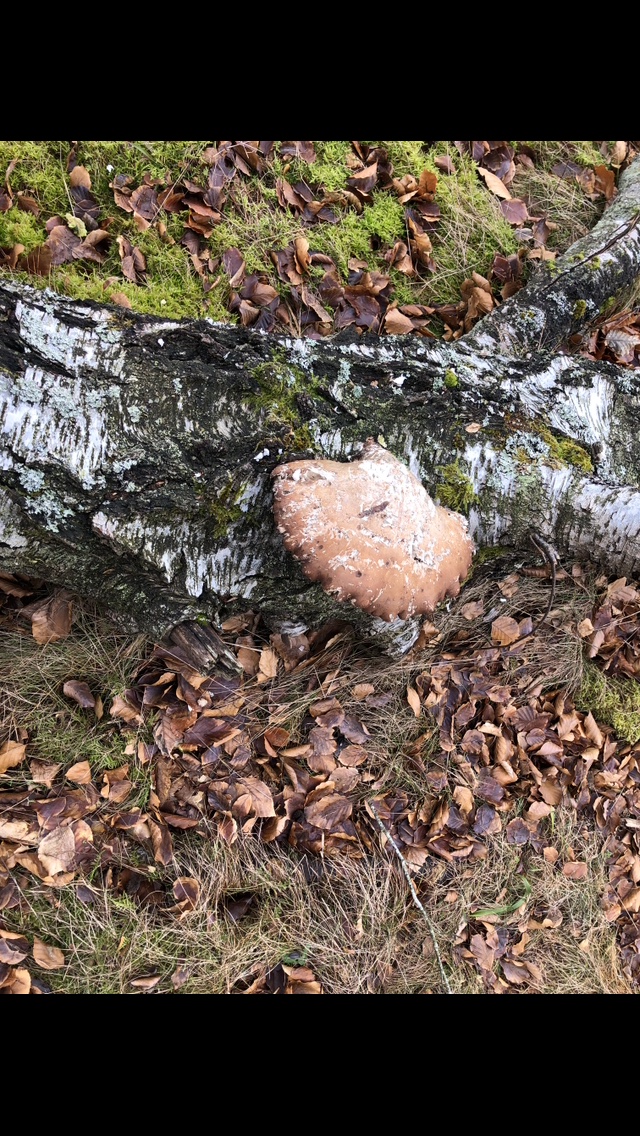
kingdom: Fungi
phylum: Basidiomycota
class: Agaricomycetes
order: Polyporales
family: Fomitopsidaceae
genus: Fomitopsis
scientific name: Fomitopsis betulina
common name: birkeporesvamp
